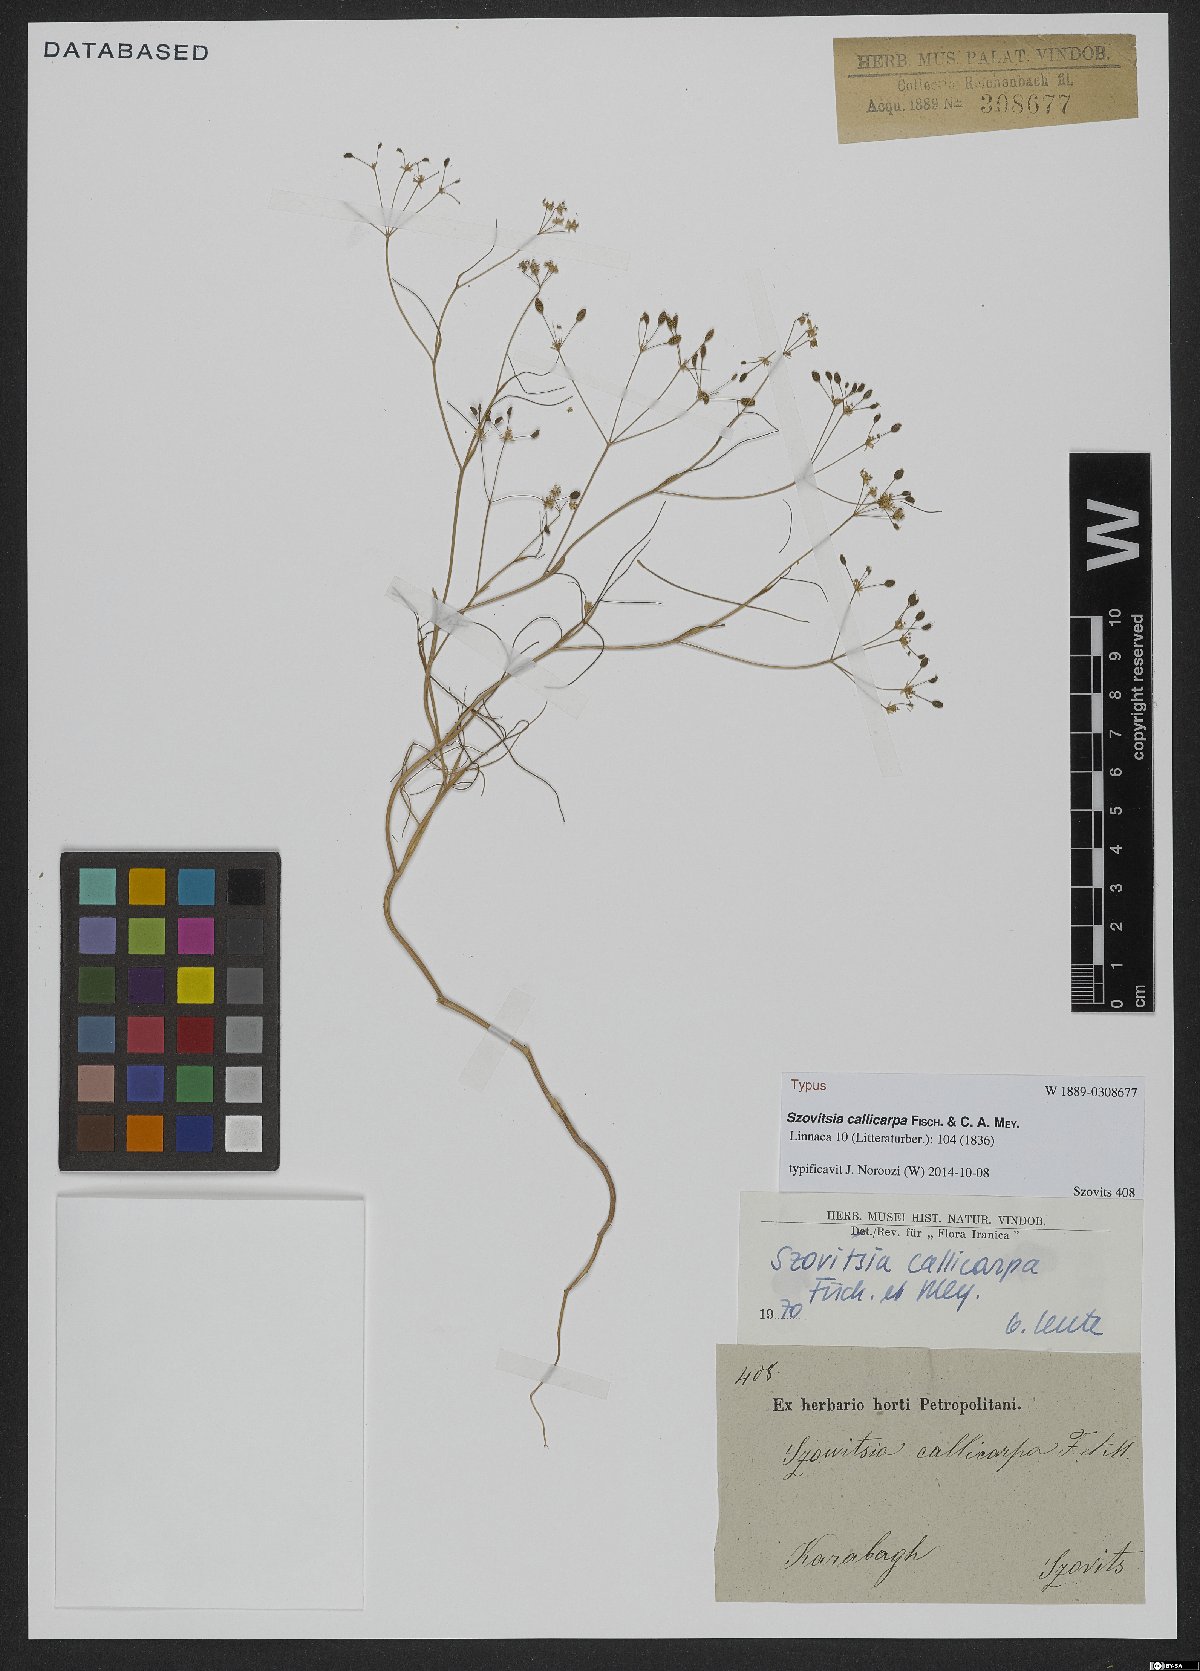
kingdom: Plantae
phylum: Tracheophyta
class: Magnoliopsida
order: Apiales
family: Apiaceae
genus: Szovitsia
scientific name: Szovitsia callicarpa
